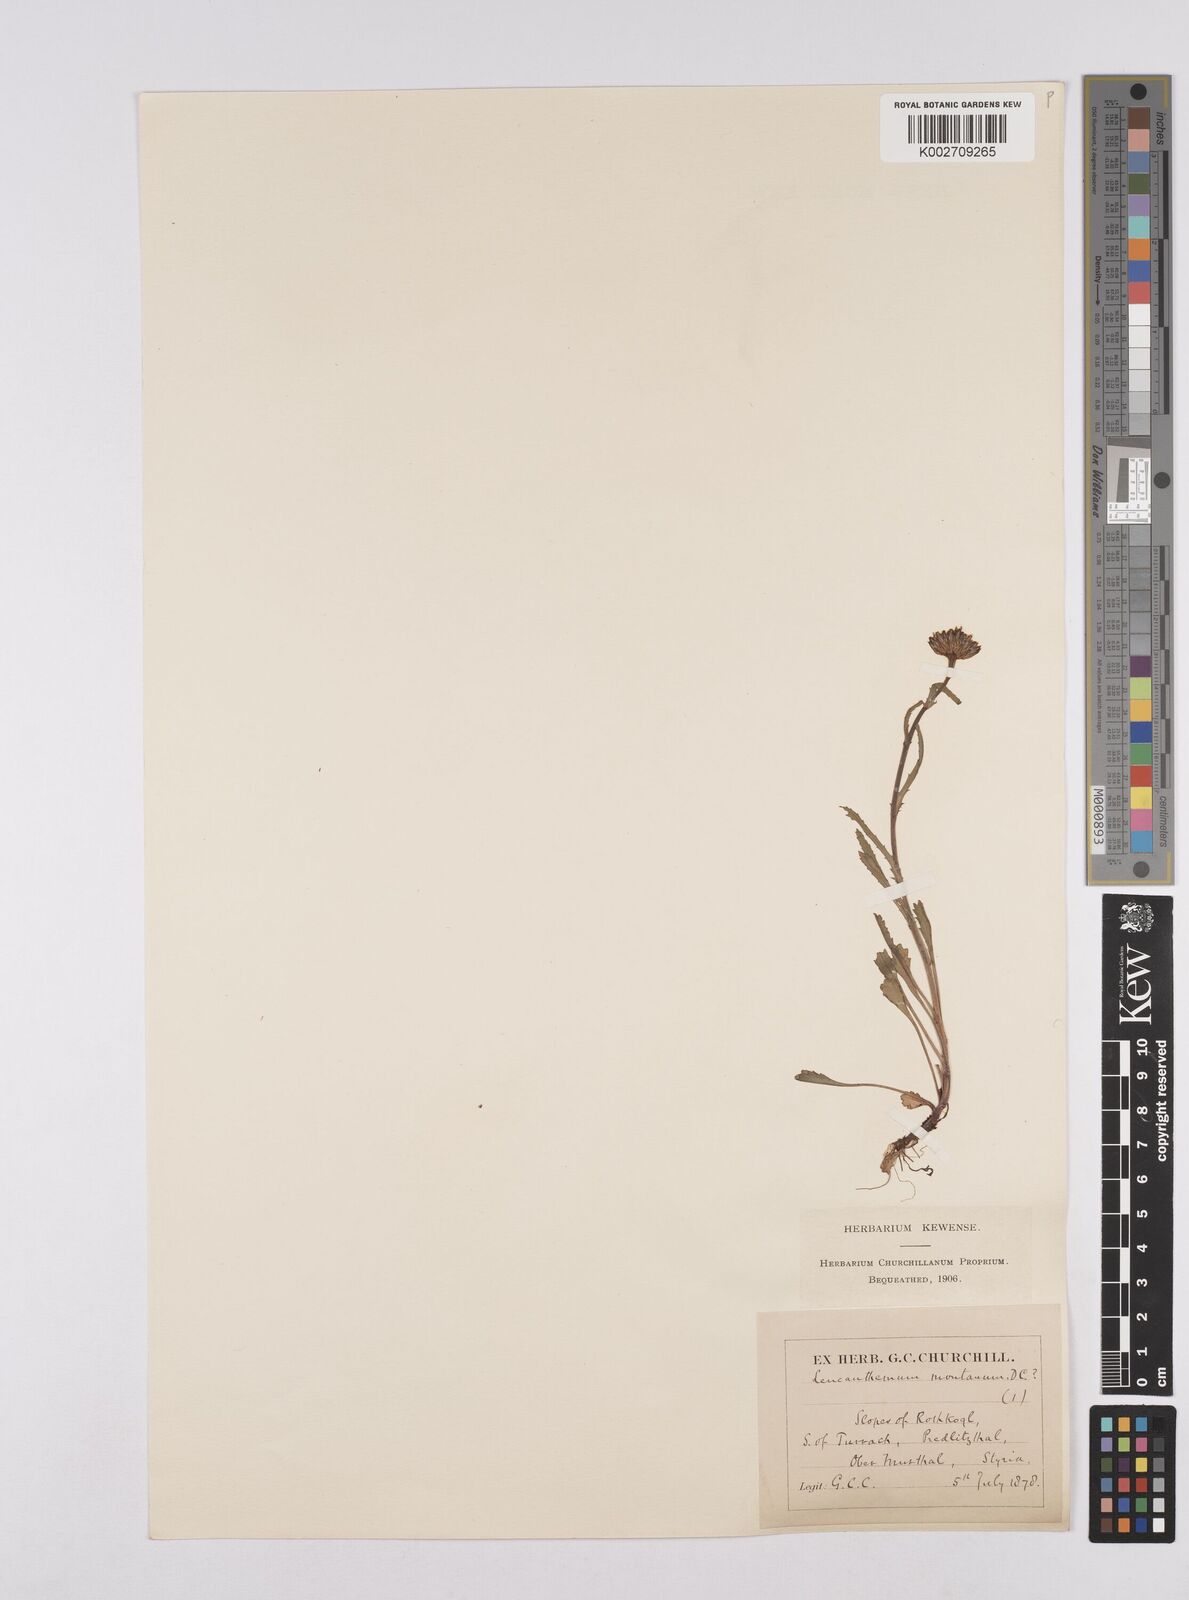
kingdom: Plantae
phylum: Tracheophyta
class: Magnoliopsida
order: Asterales
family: Asteraceae
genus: Leucanthemum
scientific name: Leucanthemum chloroticum
